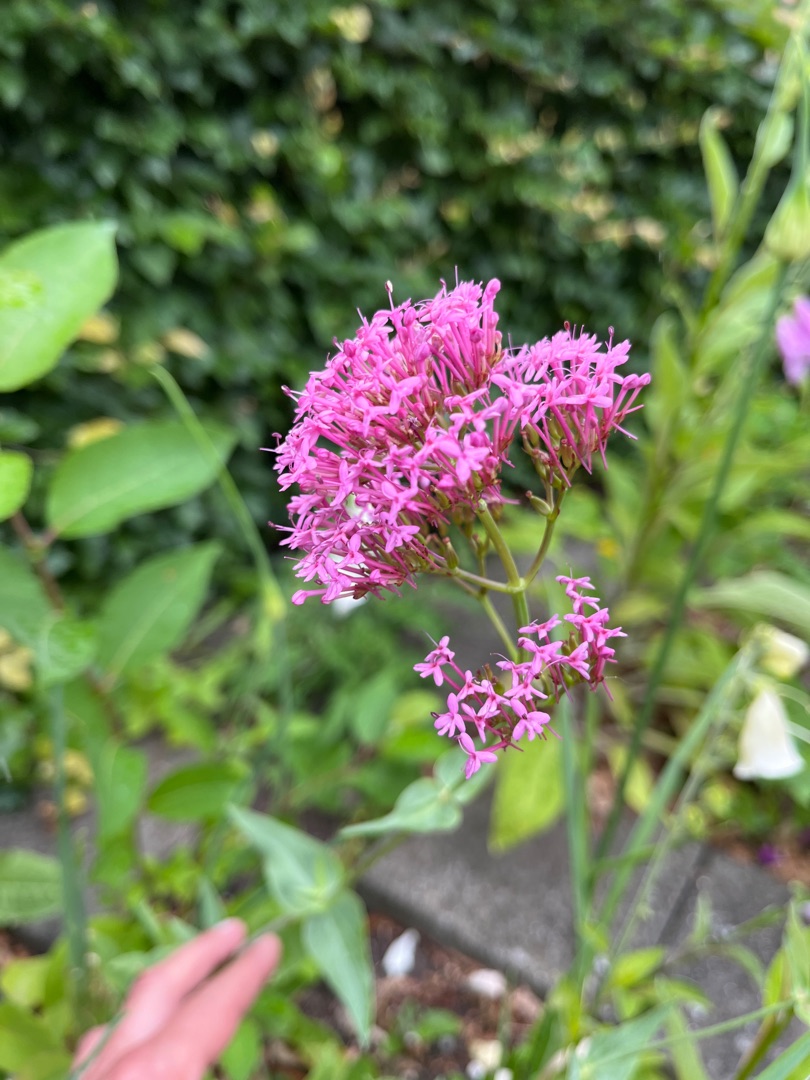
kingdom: Plantae
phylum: Tracheophyta
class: Magnoliopsida
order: Dipsacales
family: Caprifoliaceae
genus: Centranthus
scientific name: Centranthus ruber
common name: Sporebaldrian
